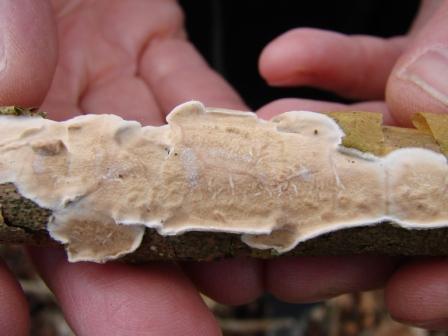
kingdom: Fungi
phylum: Basidiomycota
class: Agaricomycetes
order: Polyporales
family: Irpicaceae
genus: Byssomerulius
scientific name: Byssomerulius corium
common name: læder-åresvamp
